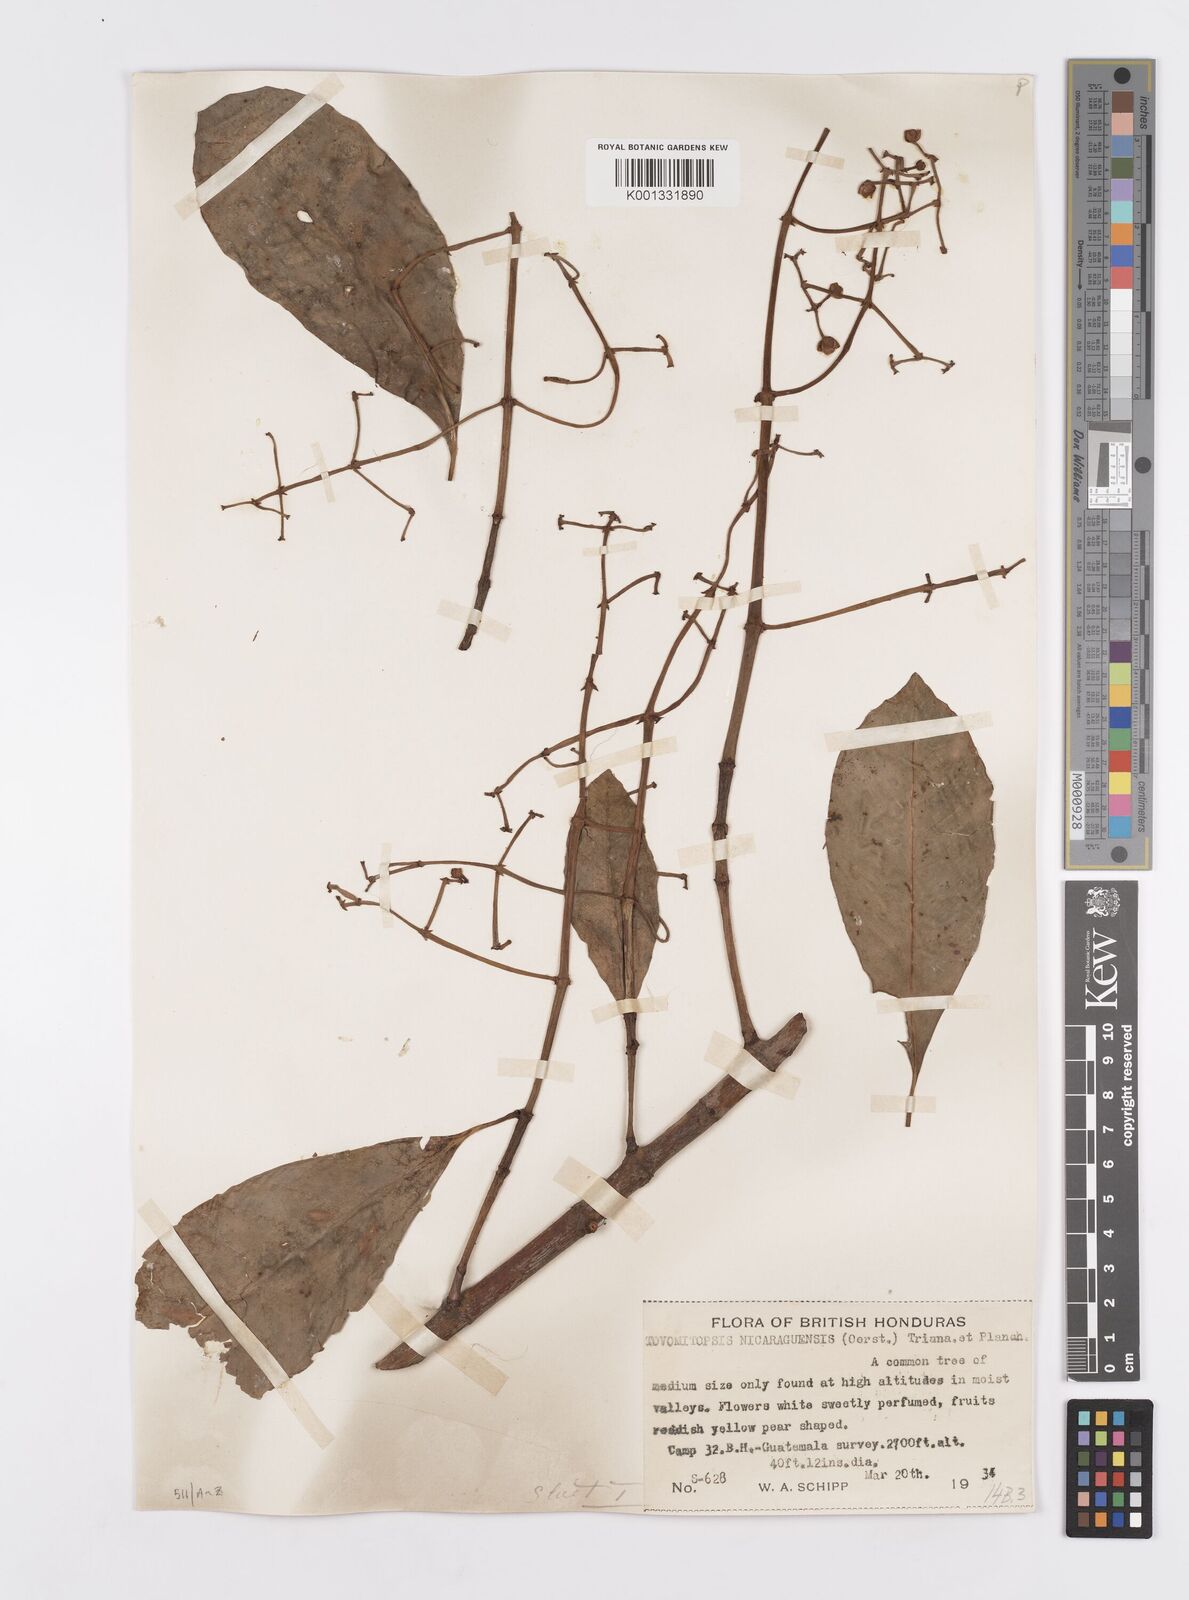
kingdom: Plantae
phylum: Tracheophyta
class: Magnoliopsida
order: Malpighiales
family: Clusiaceae
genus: Chrysochlamys
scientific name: Chrysochlamys nicaraguensis
